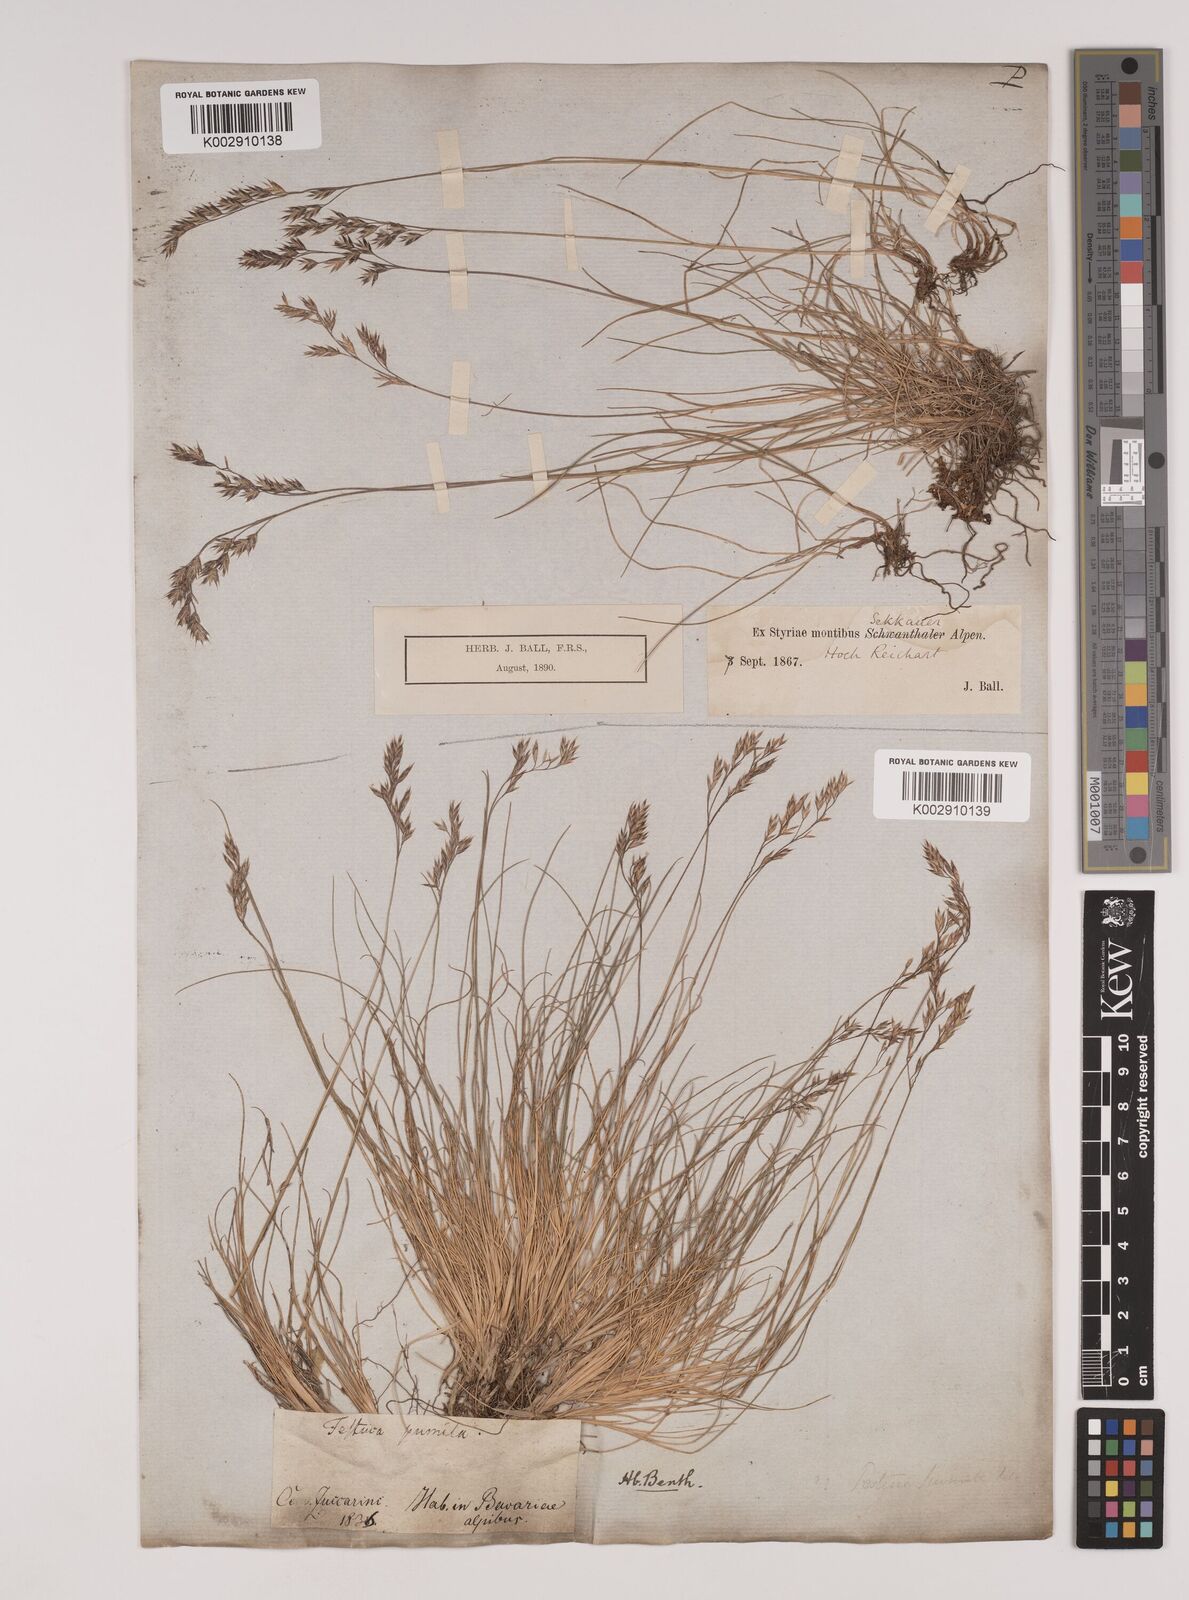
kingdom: Plantae
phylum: Tracheophyta
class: Liliopsida
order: Poales
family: Poaceae
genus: Festuca
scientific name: Festuca
